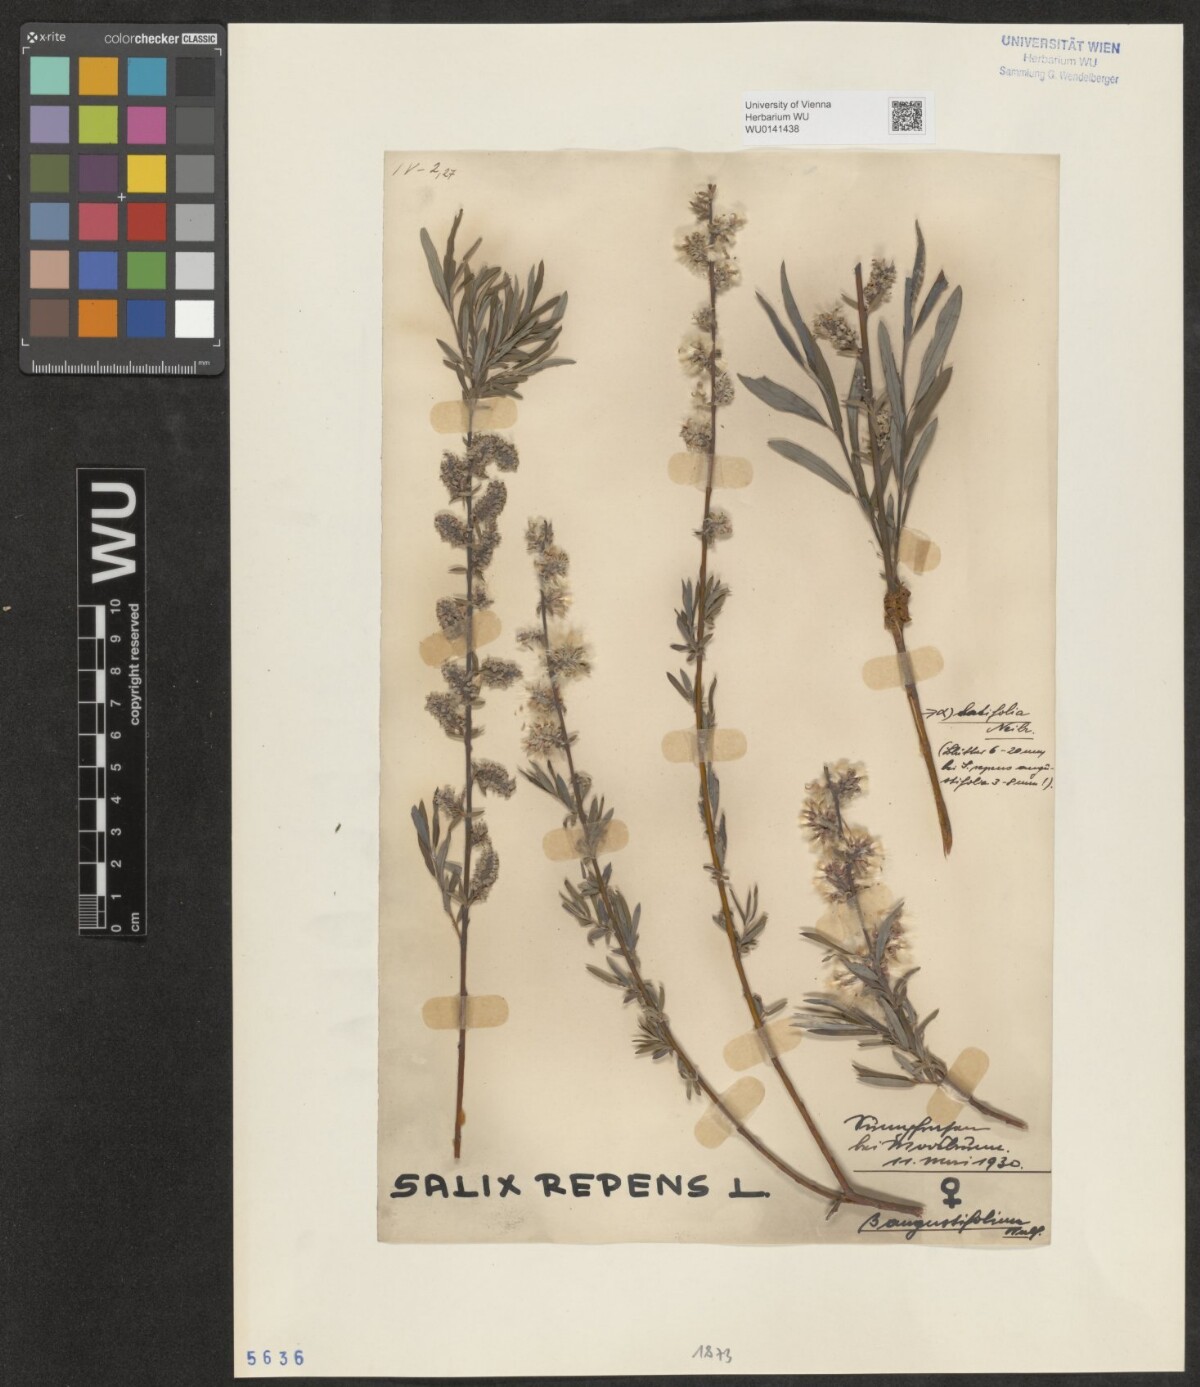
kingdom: Plantae
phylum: Tracheophyta
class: Magnoliopsida
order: Malpighiales
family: Salicaceae
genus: Salix
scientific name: Salix repens
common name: Creeping willow
